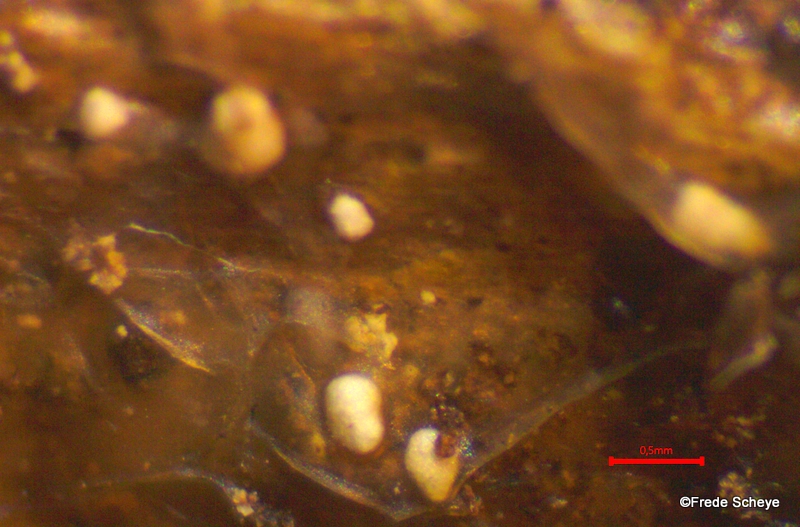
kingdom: Fungi
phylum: Basidiomycota
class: Agaricomycetes
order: Auriculariales
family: Hyaloriaceae
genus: Myxarium
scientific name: Myxarium nucleatum
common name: klar bævretop
